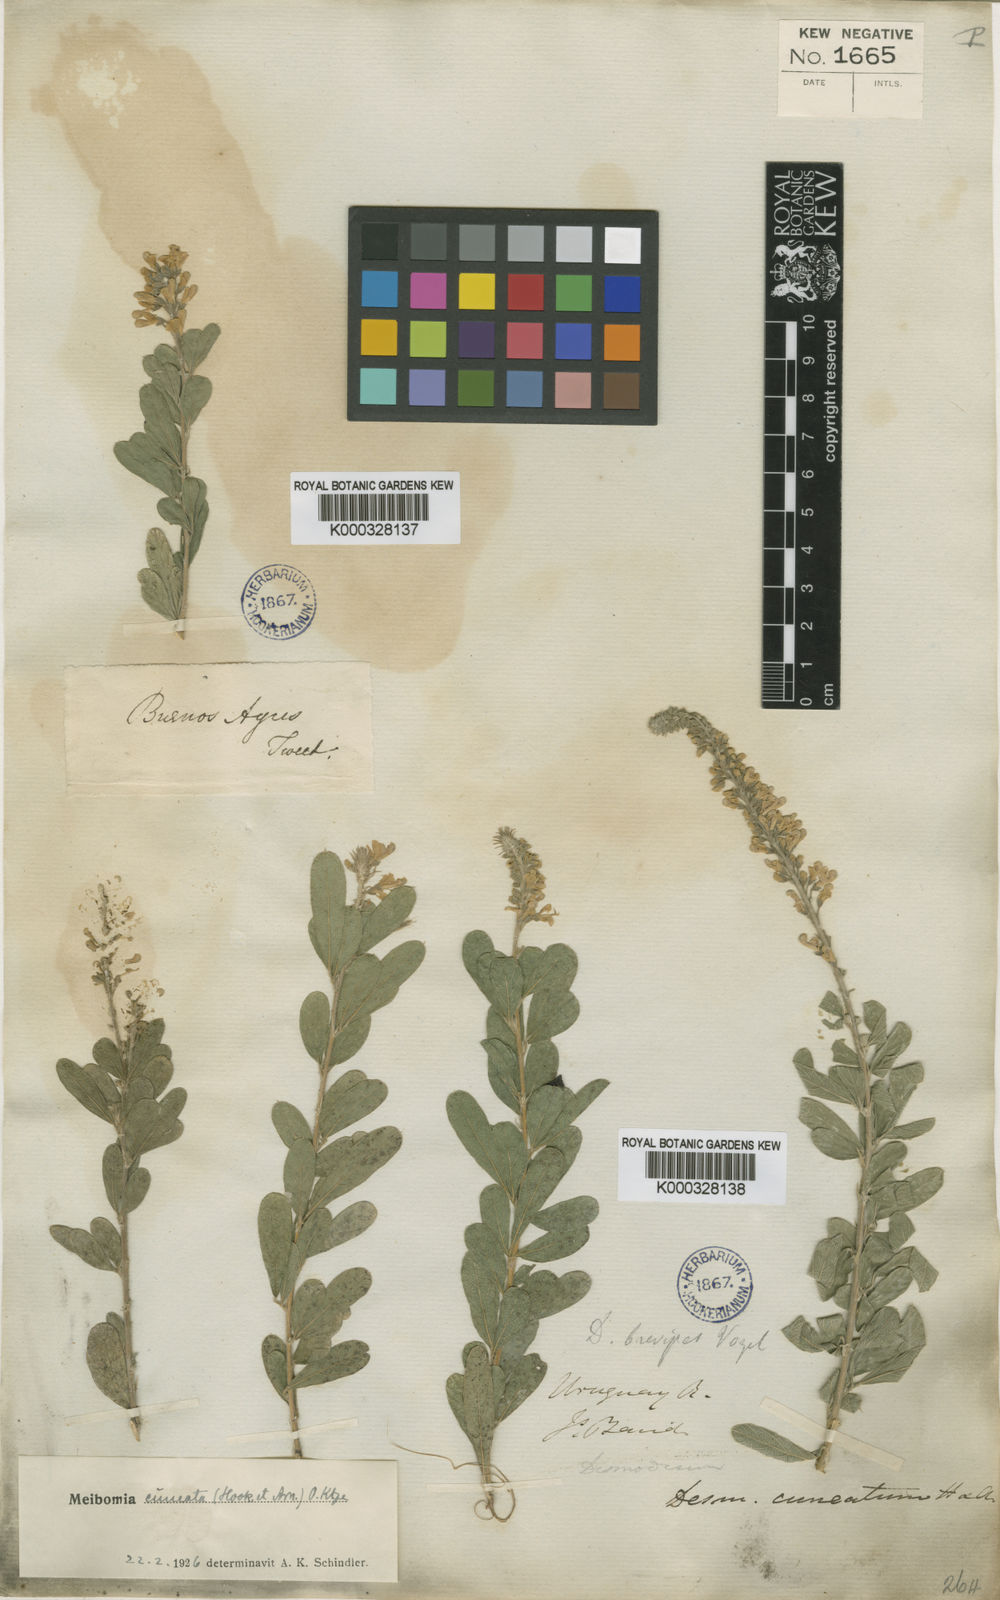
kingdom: Plantae
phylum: Tracheophyta
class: Magnoliopsida
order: Fabales
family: Fabaceae
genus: Desmodium
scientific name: Desmodium cuneatum
